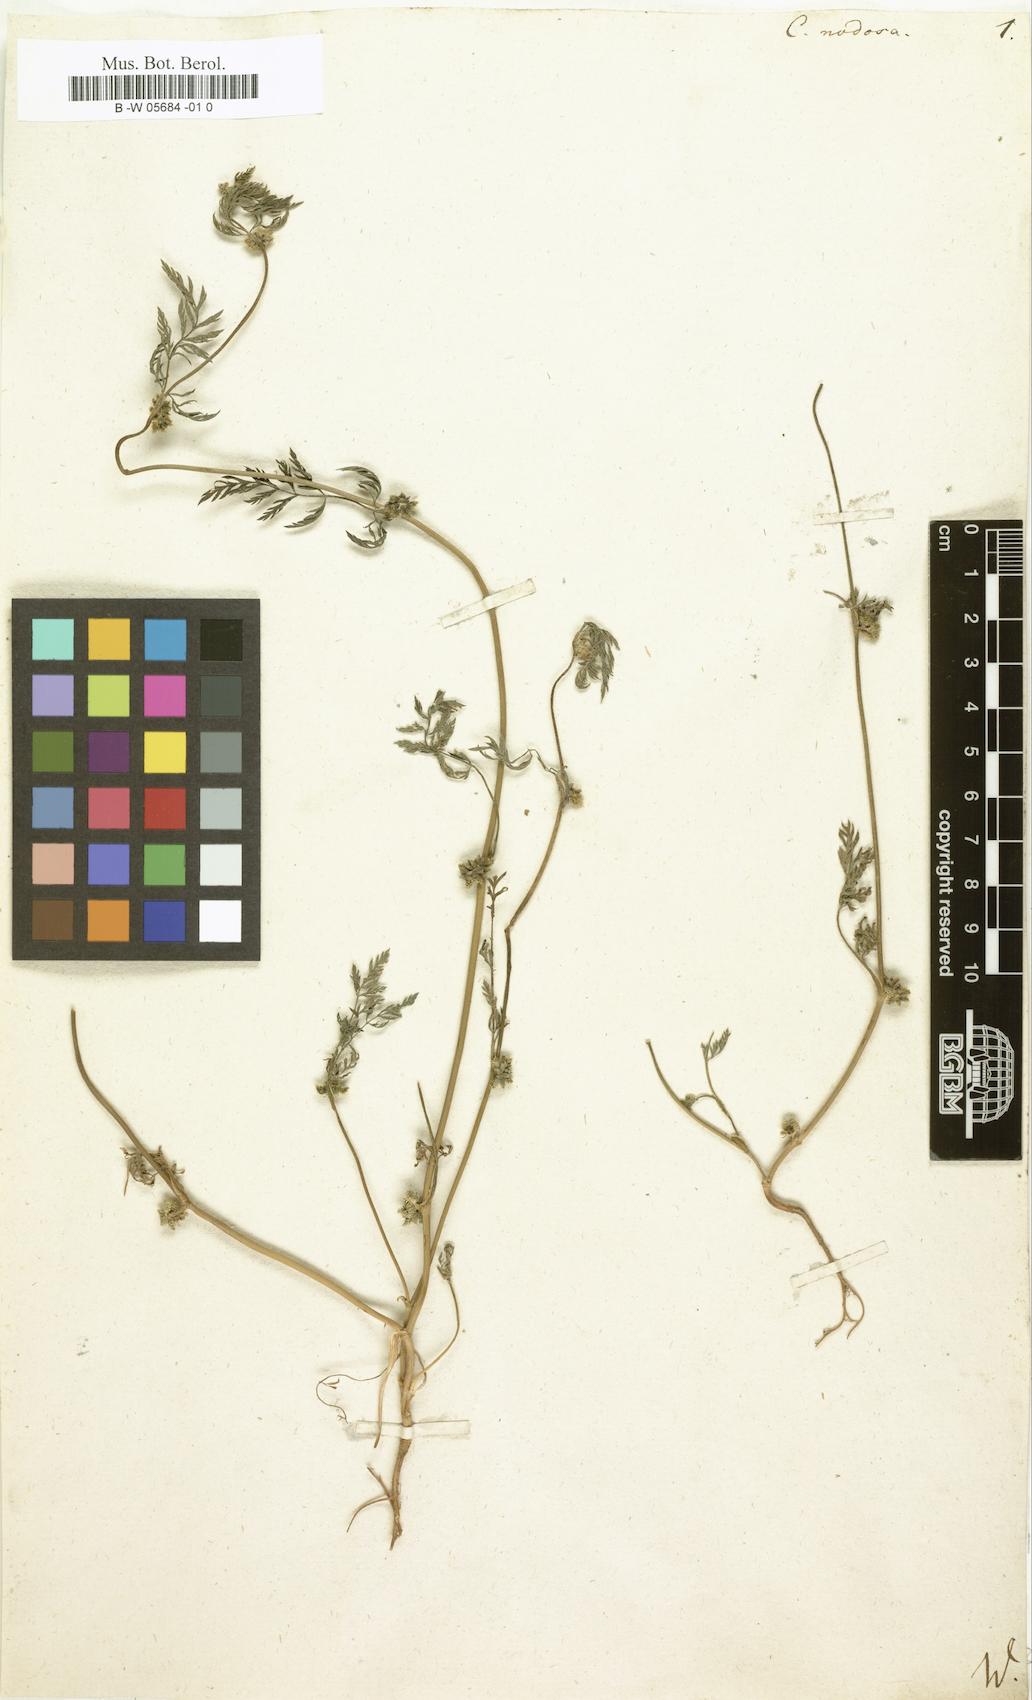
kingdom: Plantae
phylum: Tracheophyta
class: Magnoliopsida
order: Apiales
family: Apiaceae
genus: Torilis
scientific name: Torilis nodosa
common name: Knotted hedge-parsley
